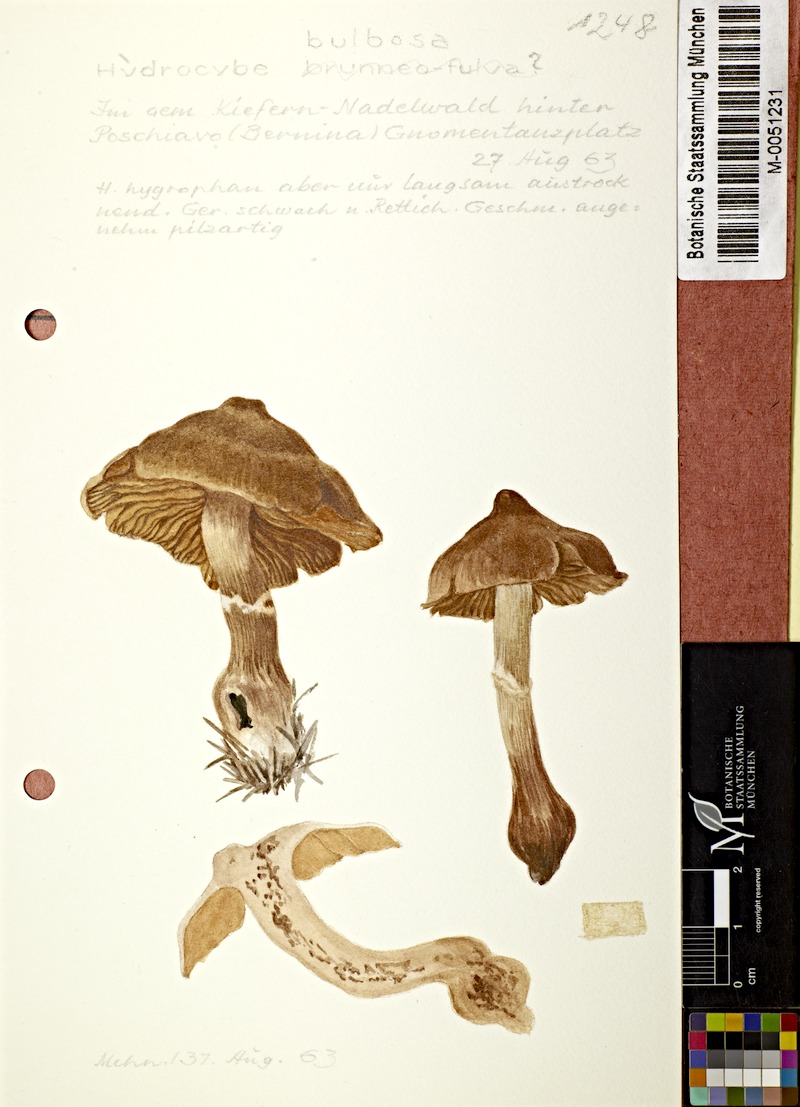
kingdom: Fungi
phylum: Basidiomycota
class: Agaricomycetes
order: Agaricales
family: Cortinariaceae
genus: Cortinarius
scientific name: Cortinarius bulbosus
